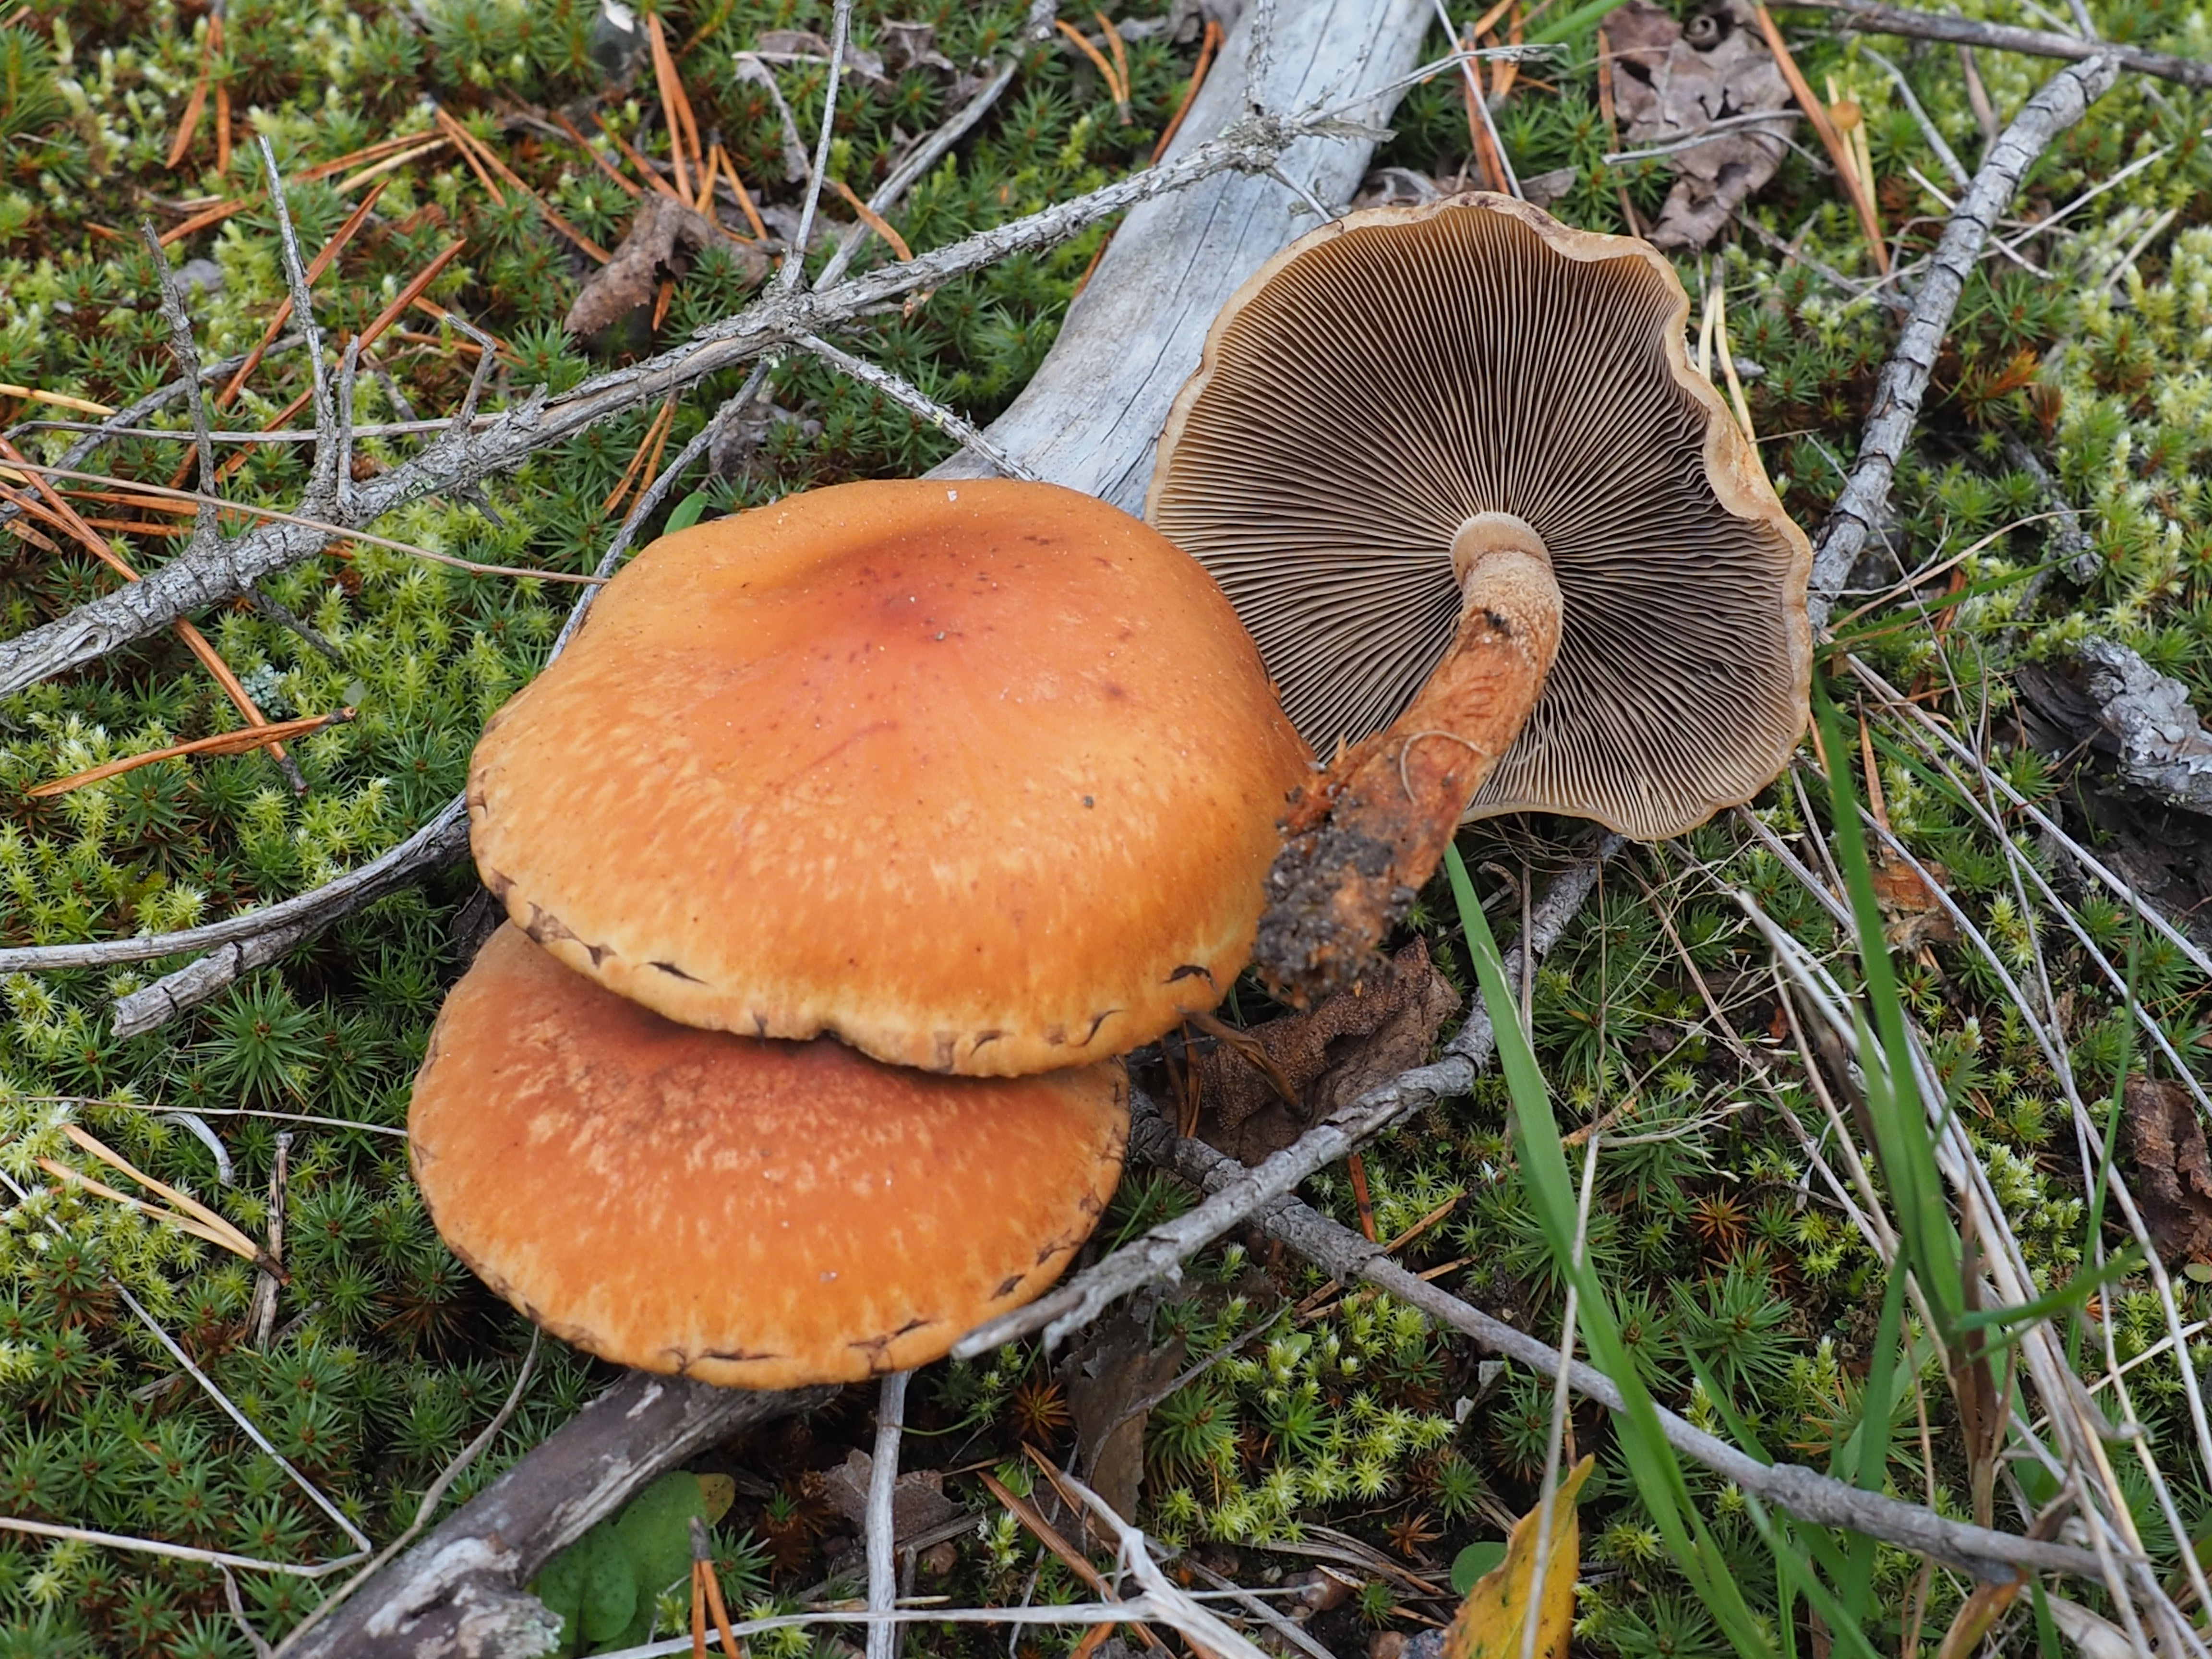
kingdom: Fungi
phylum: Basidiomycota
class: Agaricomycetes
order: Agaricales
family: Strophariaceae
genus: Hypholoma
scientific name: Hypholoma lateritium
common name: Brick caps
